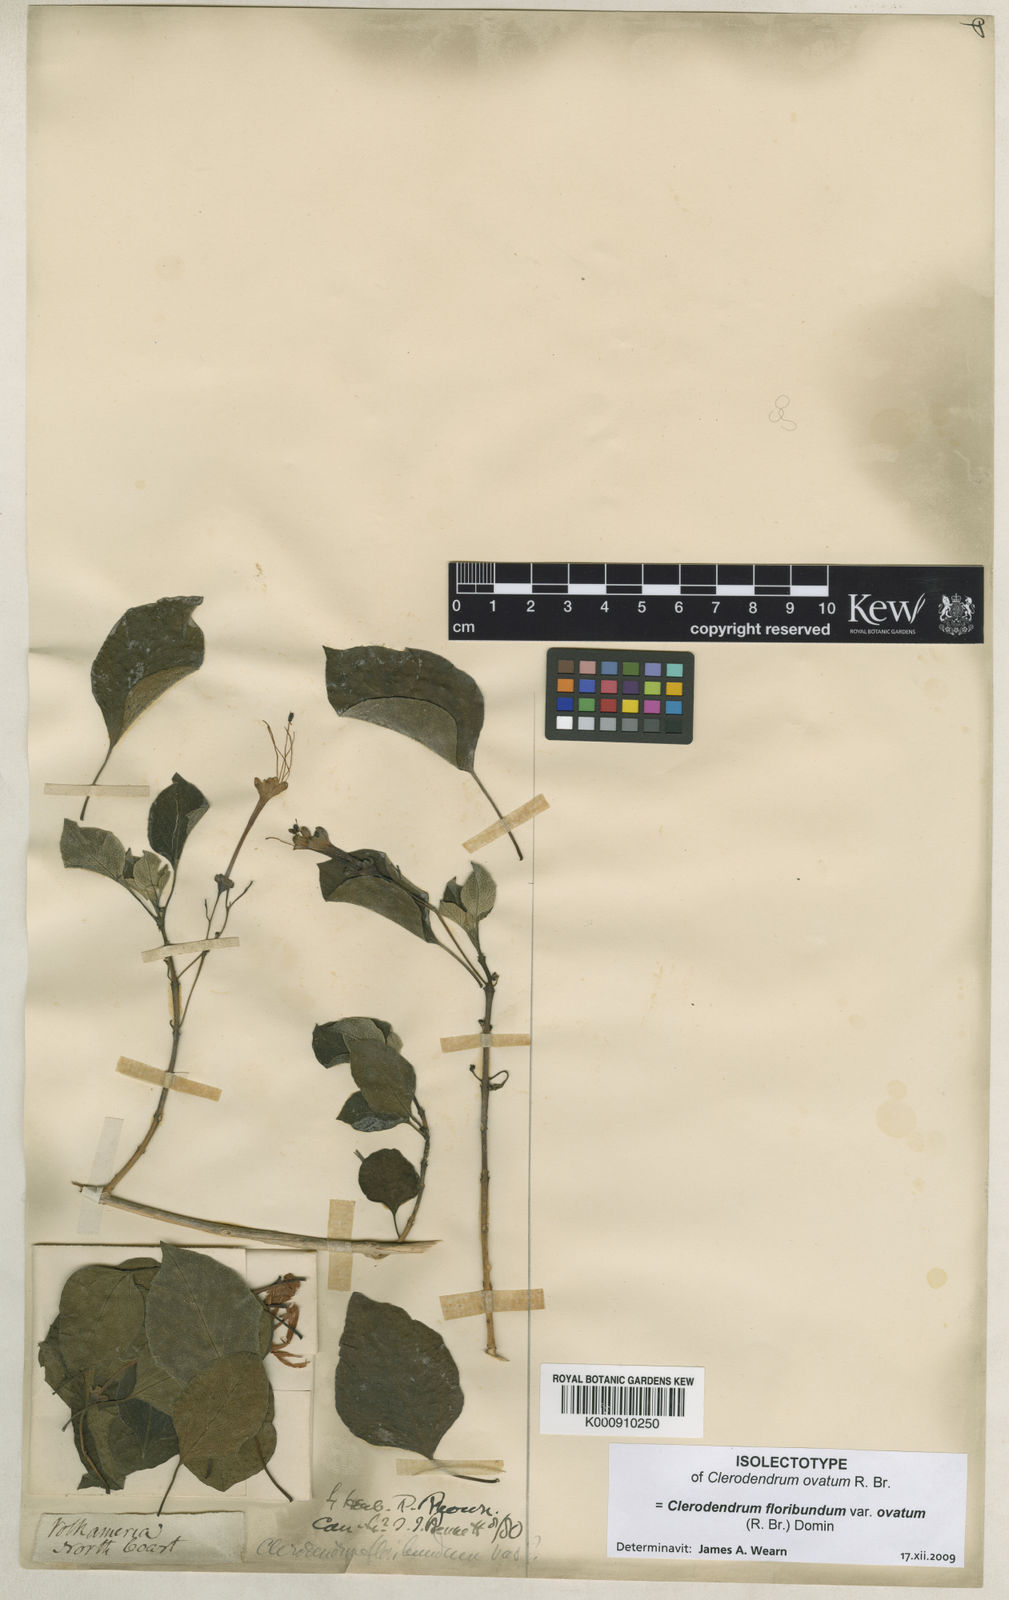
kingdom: Plantae
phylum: Tracheophyta
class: Magnoliopsida
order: Lamiales
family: Lamiaceae
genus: Clerodendrum
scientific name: Clerodendrum floribundum
